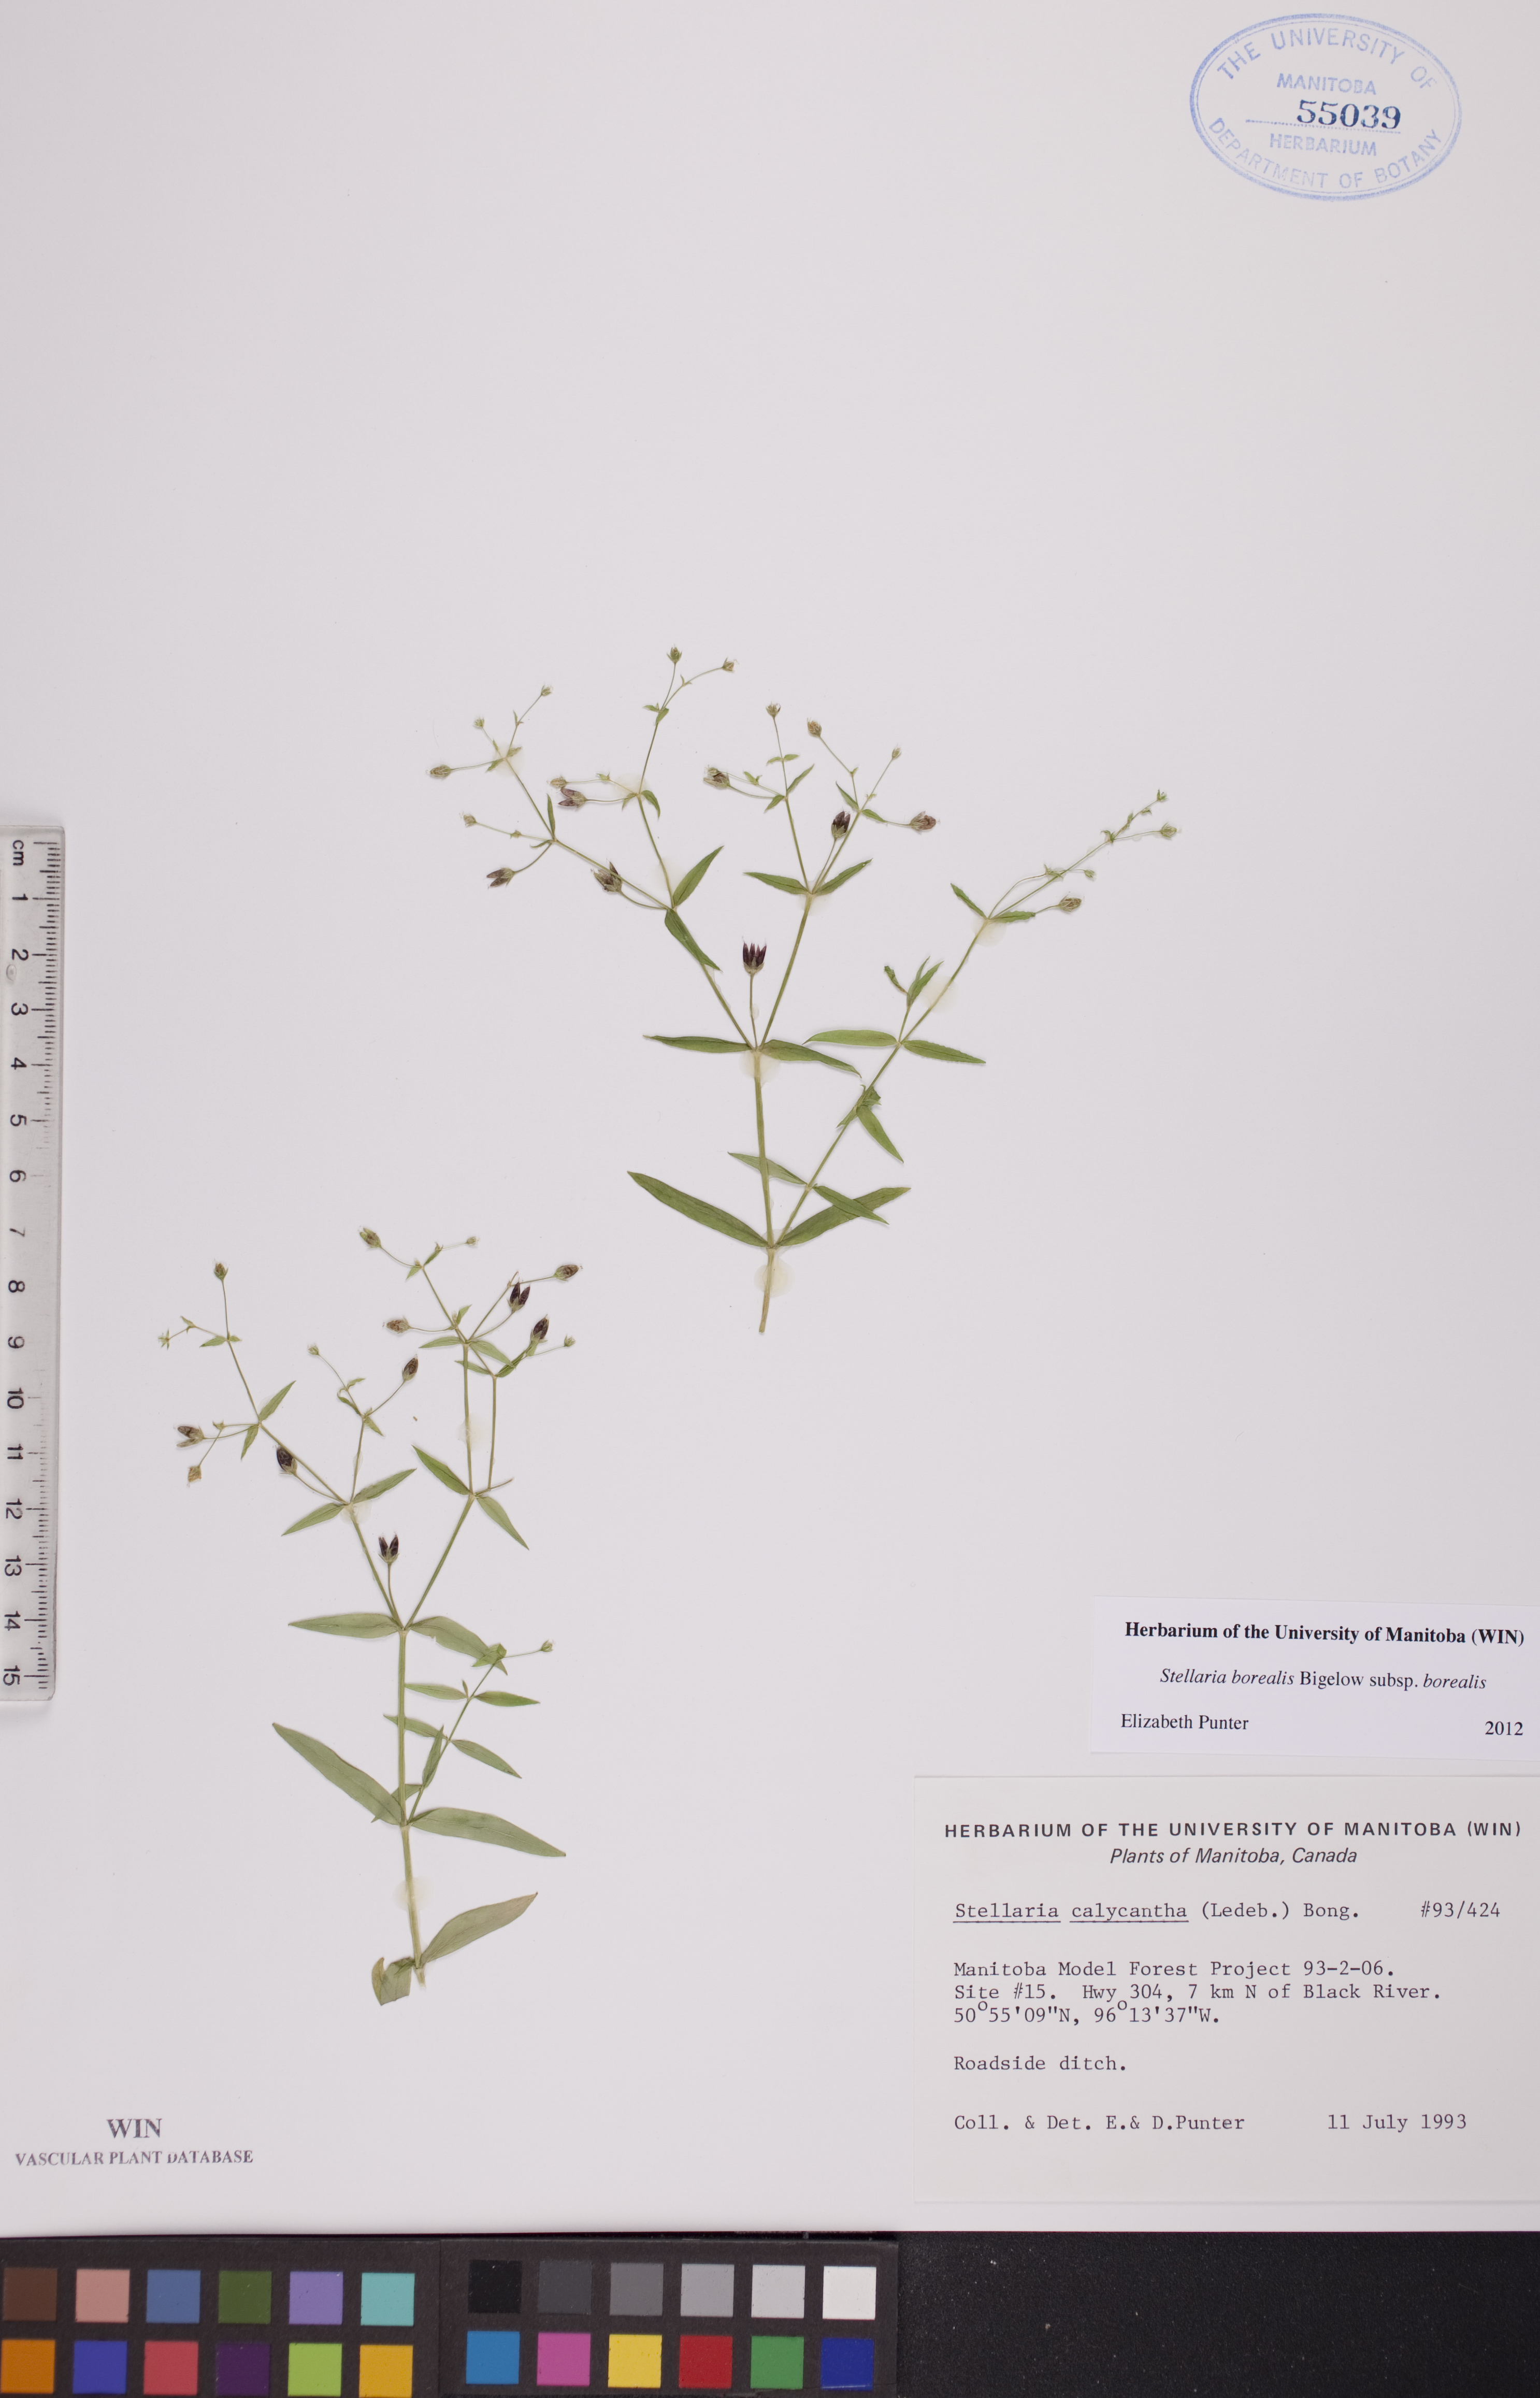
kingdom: Plantae
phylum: Tracheophyta
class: Magnoliopsida
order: Caryophyllales
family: Caryophyllaceae
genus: Stellaria
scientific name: Stellaria borealis
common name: Boreal starwort
